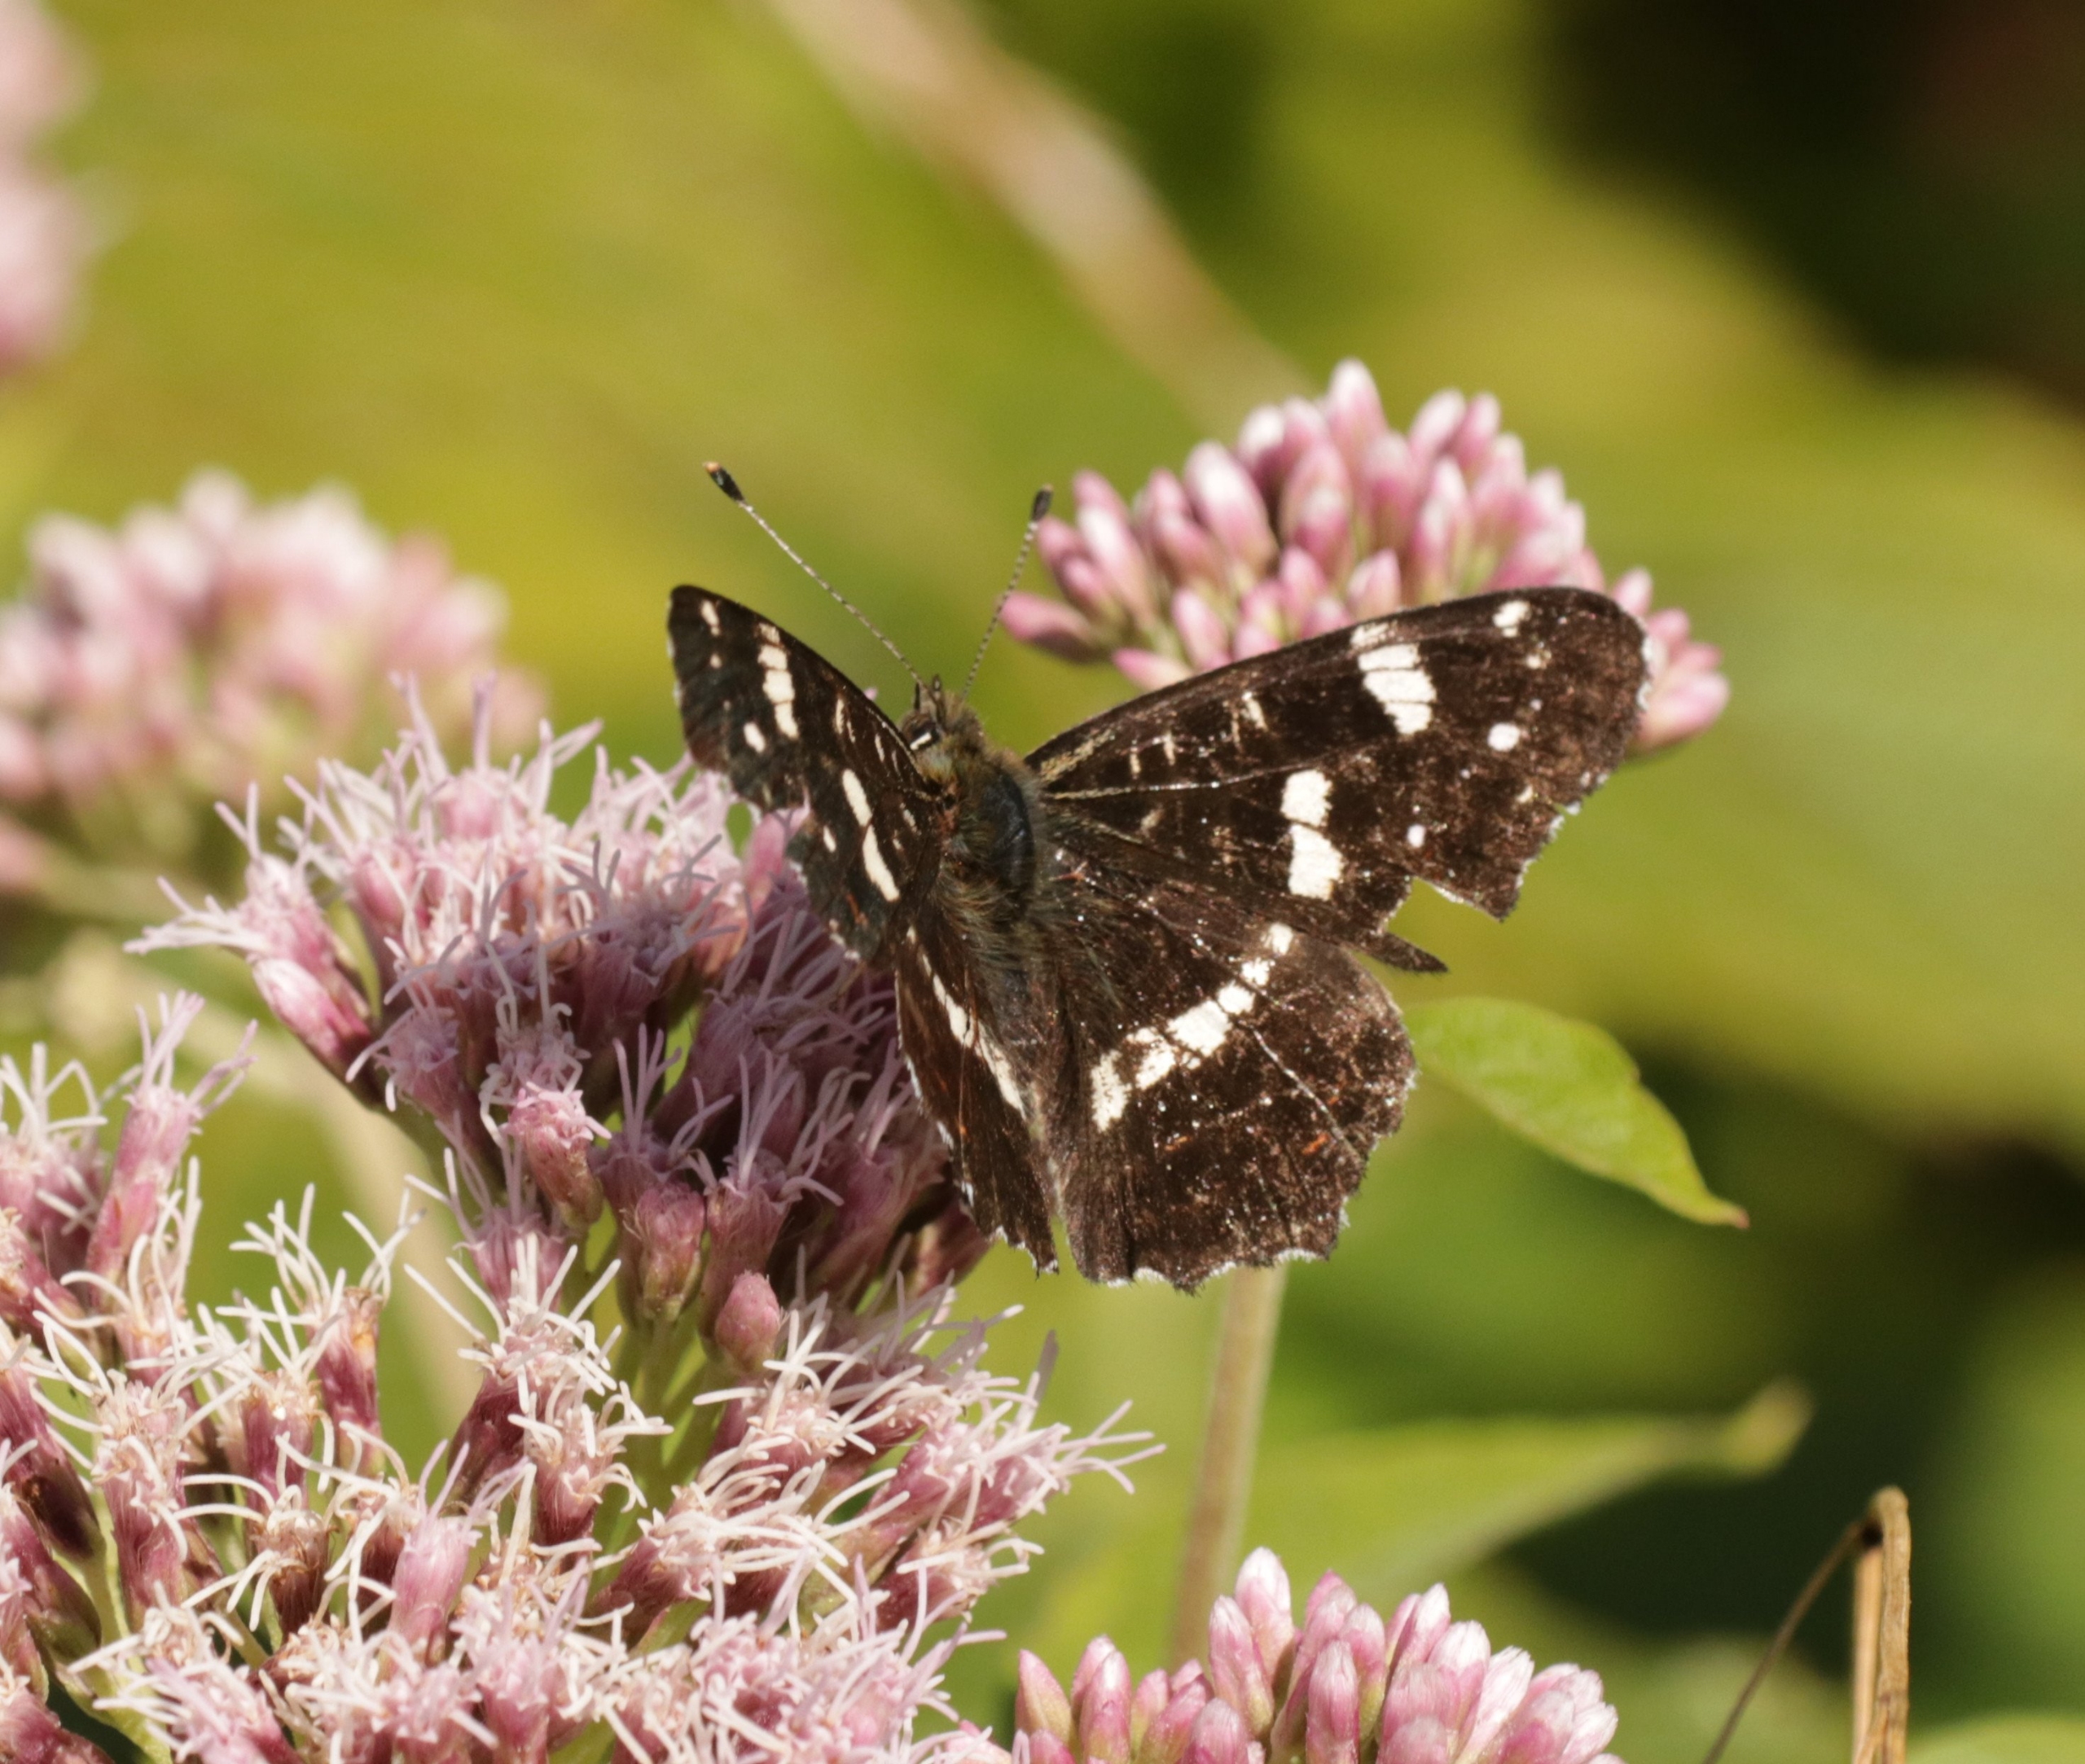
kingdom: Animalia
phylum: Arthropoda
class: Insecta
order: Lepidoptera
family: Nymphalidae
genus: Araschnia
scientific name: Araschnia levana
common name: Nældesommerfugl
